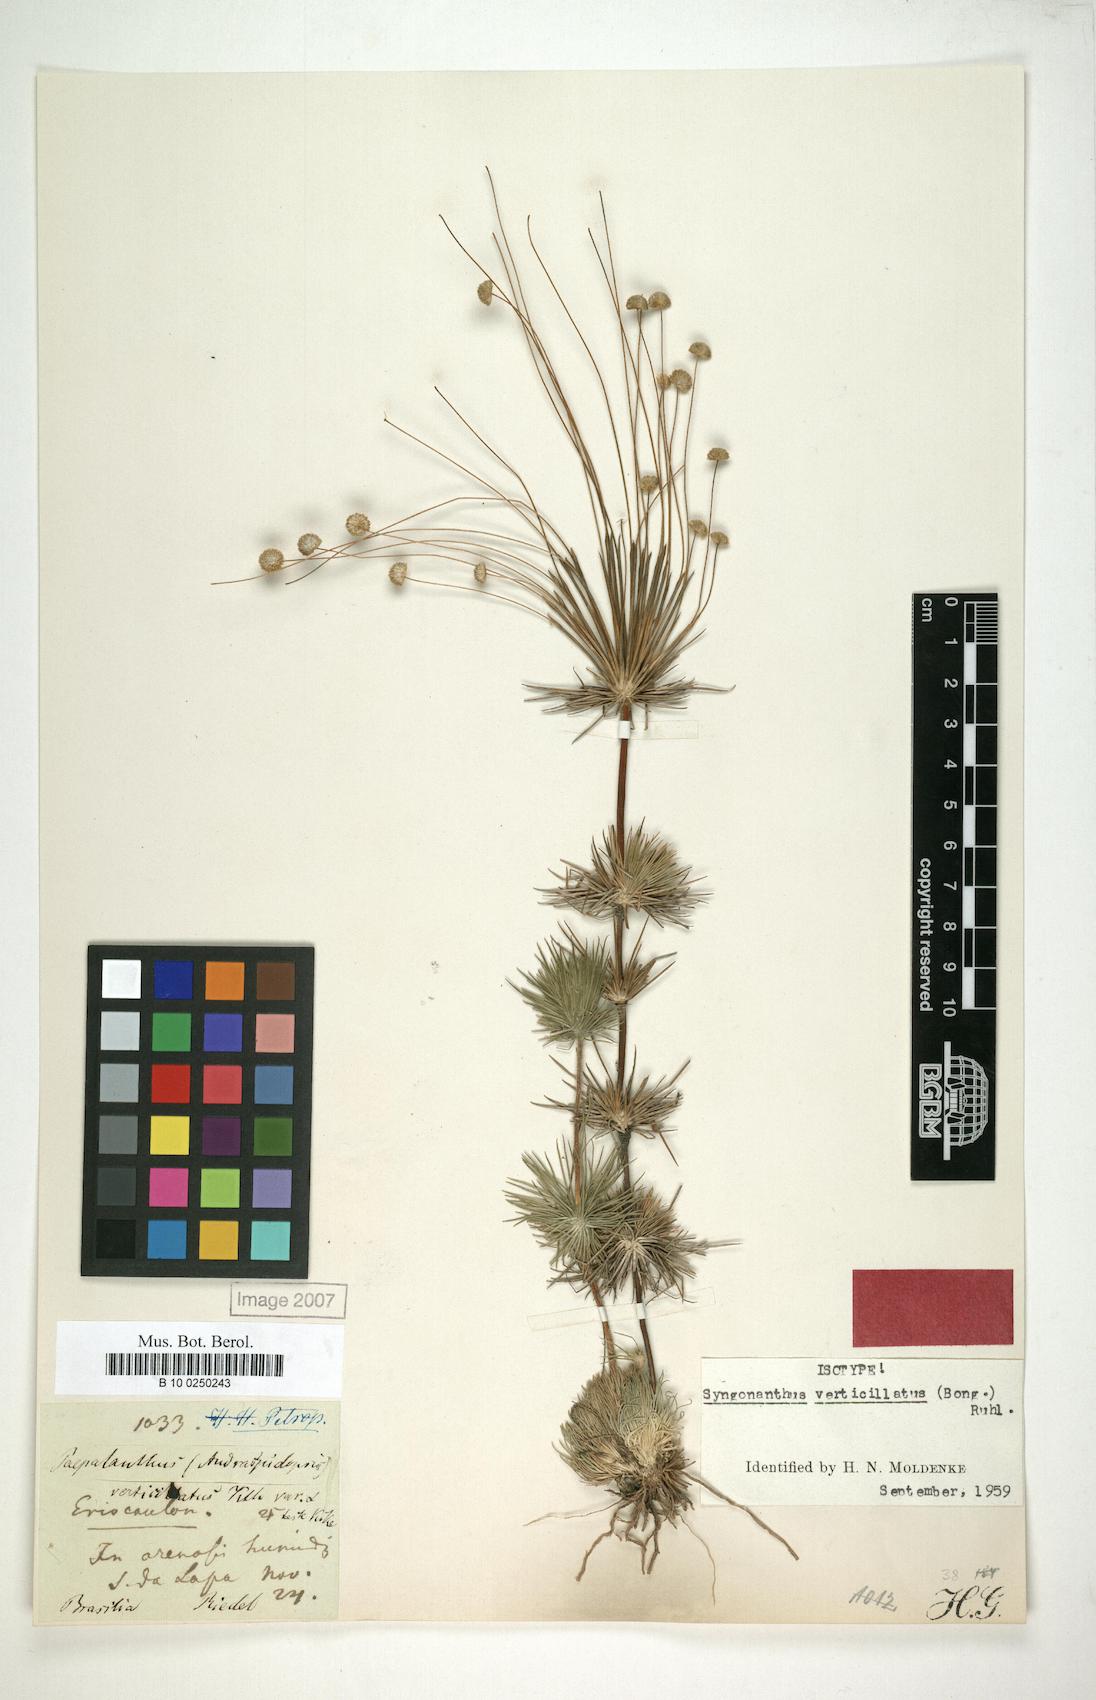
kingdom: Plantae
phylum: Tracheophyta
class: Liliopsida
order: Poales
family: Eriocaulaceae
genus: Syngonanthus
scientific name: Syngonanthus verticillatus
